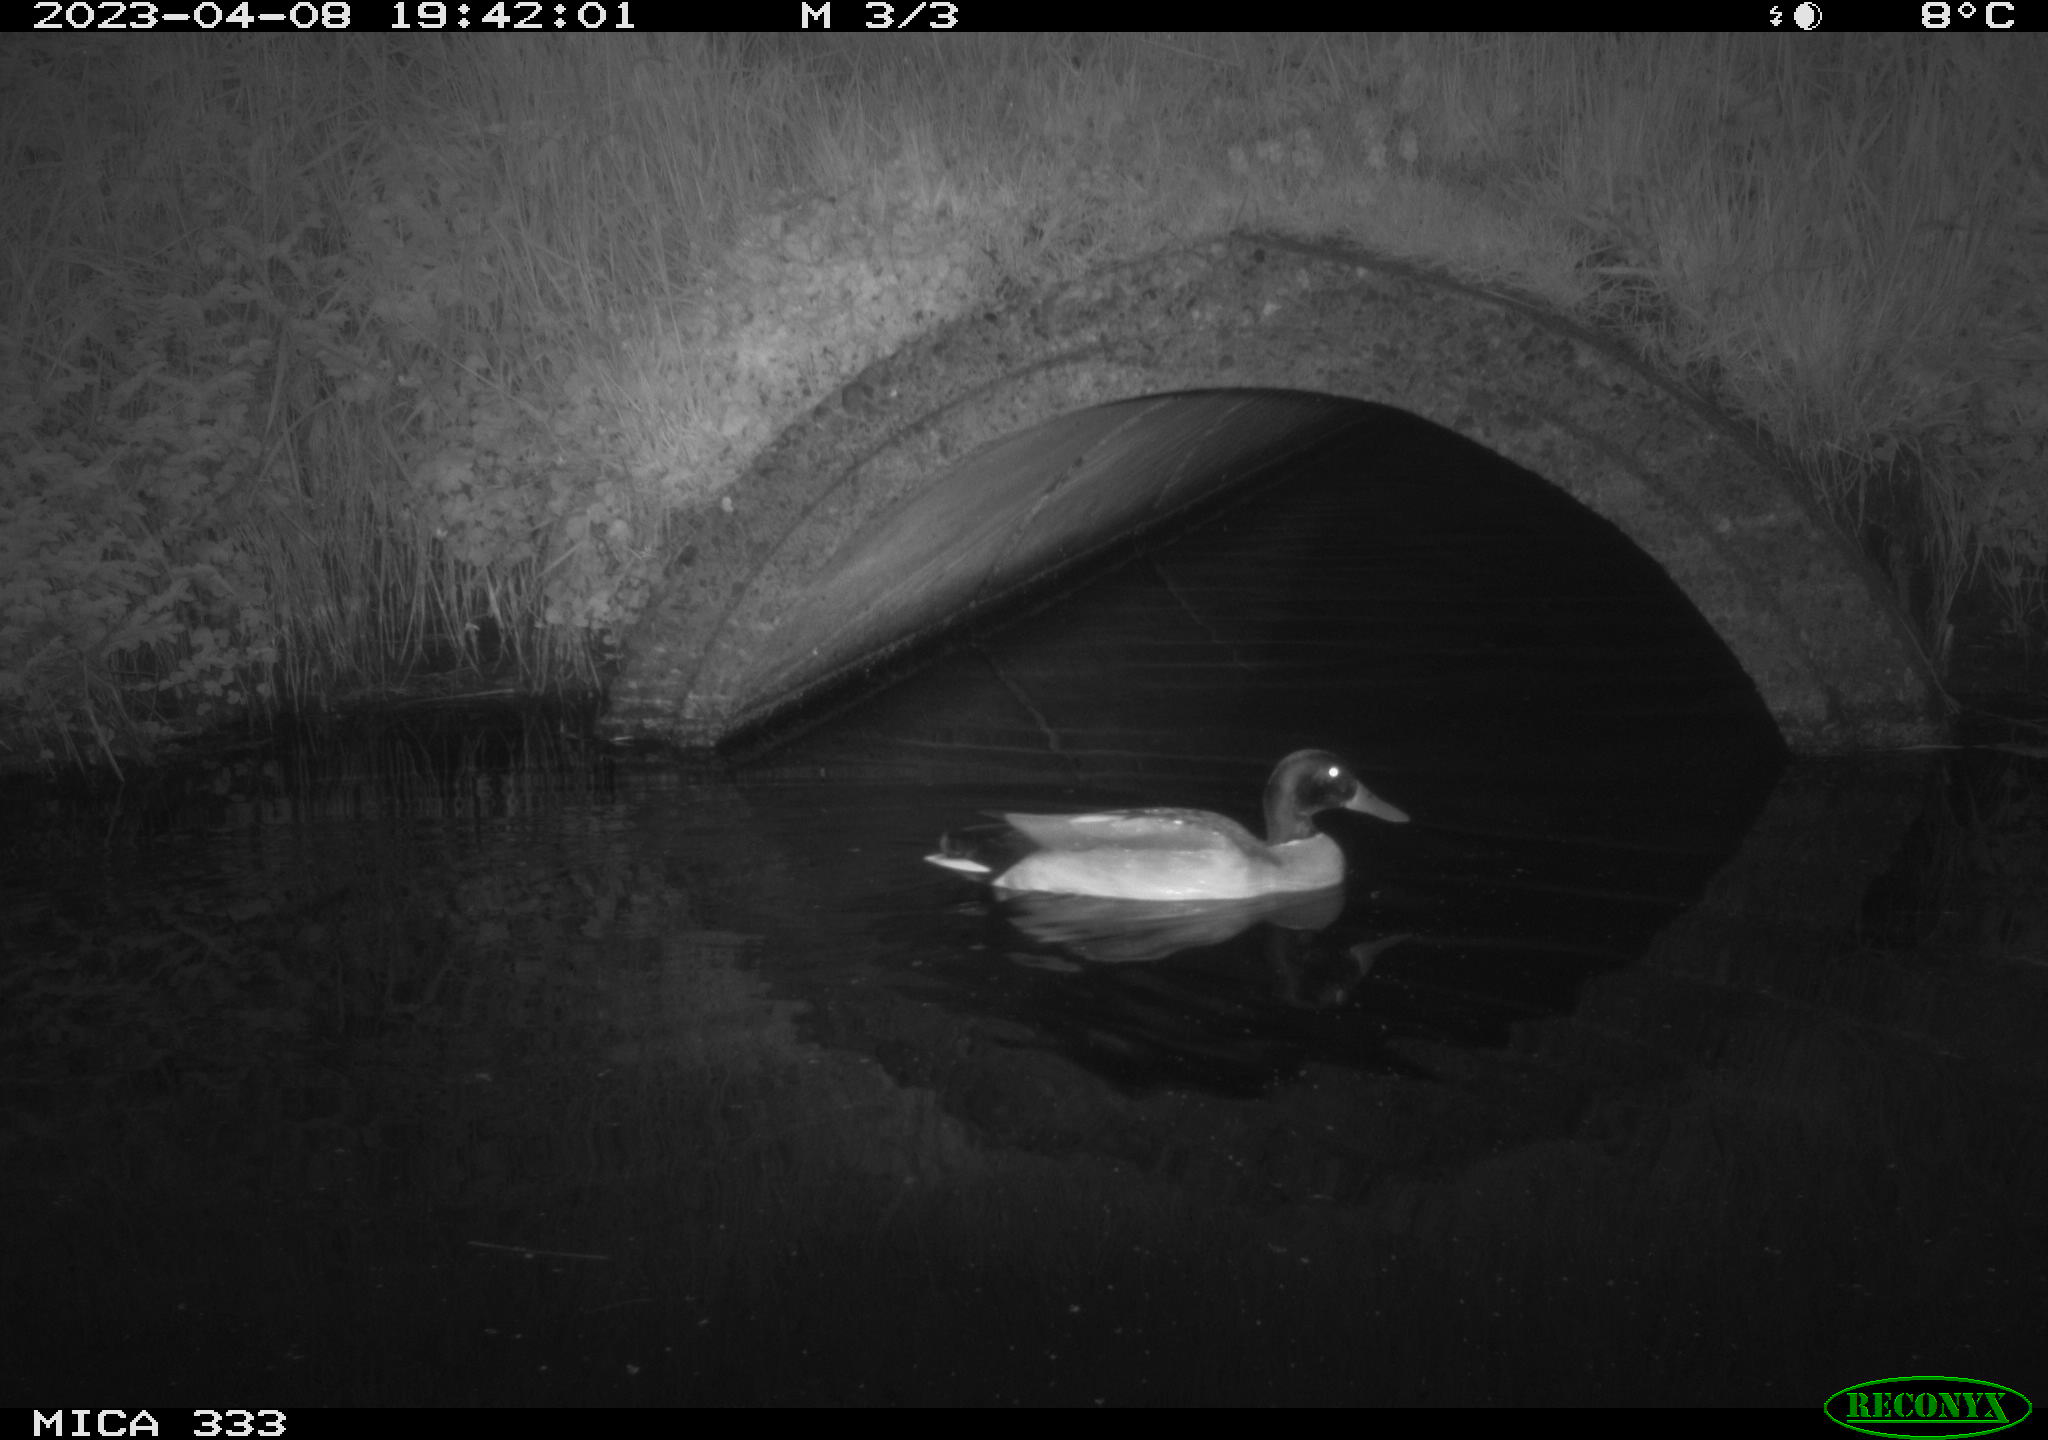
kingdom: Animalia
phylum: Chordata
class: Aves
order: Anseriformes
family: Anatidae
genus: Anas
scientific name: Anas
